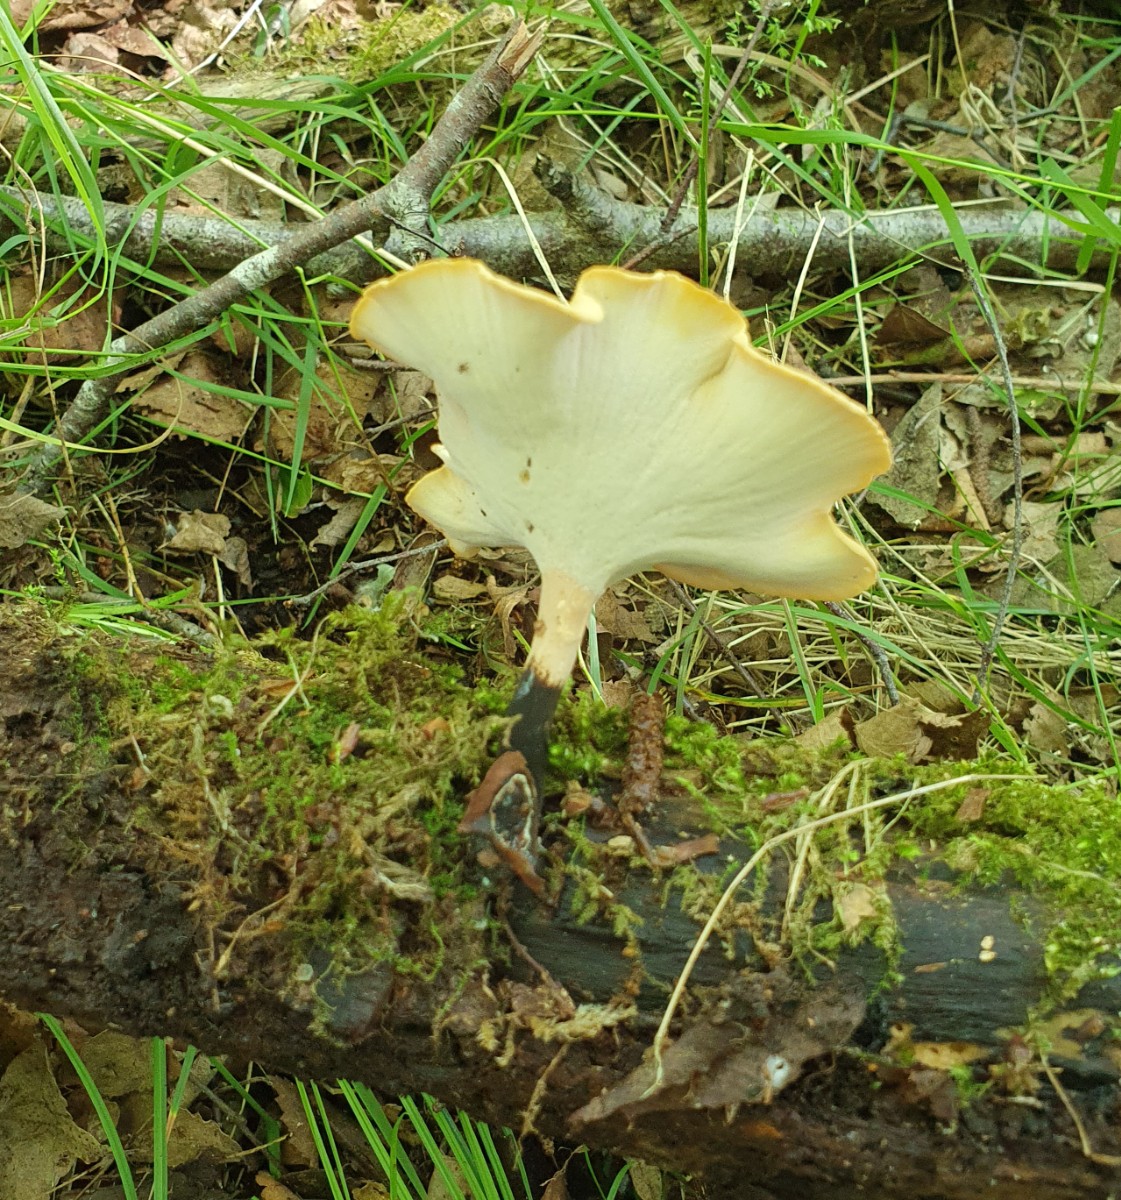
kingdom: Fungi
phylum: Basidiomycota
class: Agaricomycetes
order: Polyporales
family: Polyporaceae
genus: Cerioporus
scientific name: Cerioporus varius
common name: foranderlig stilkporesvamp
